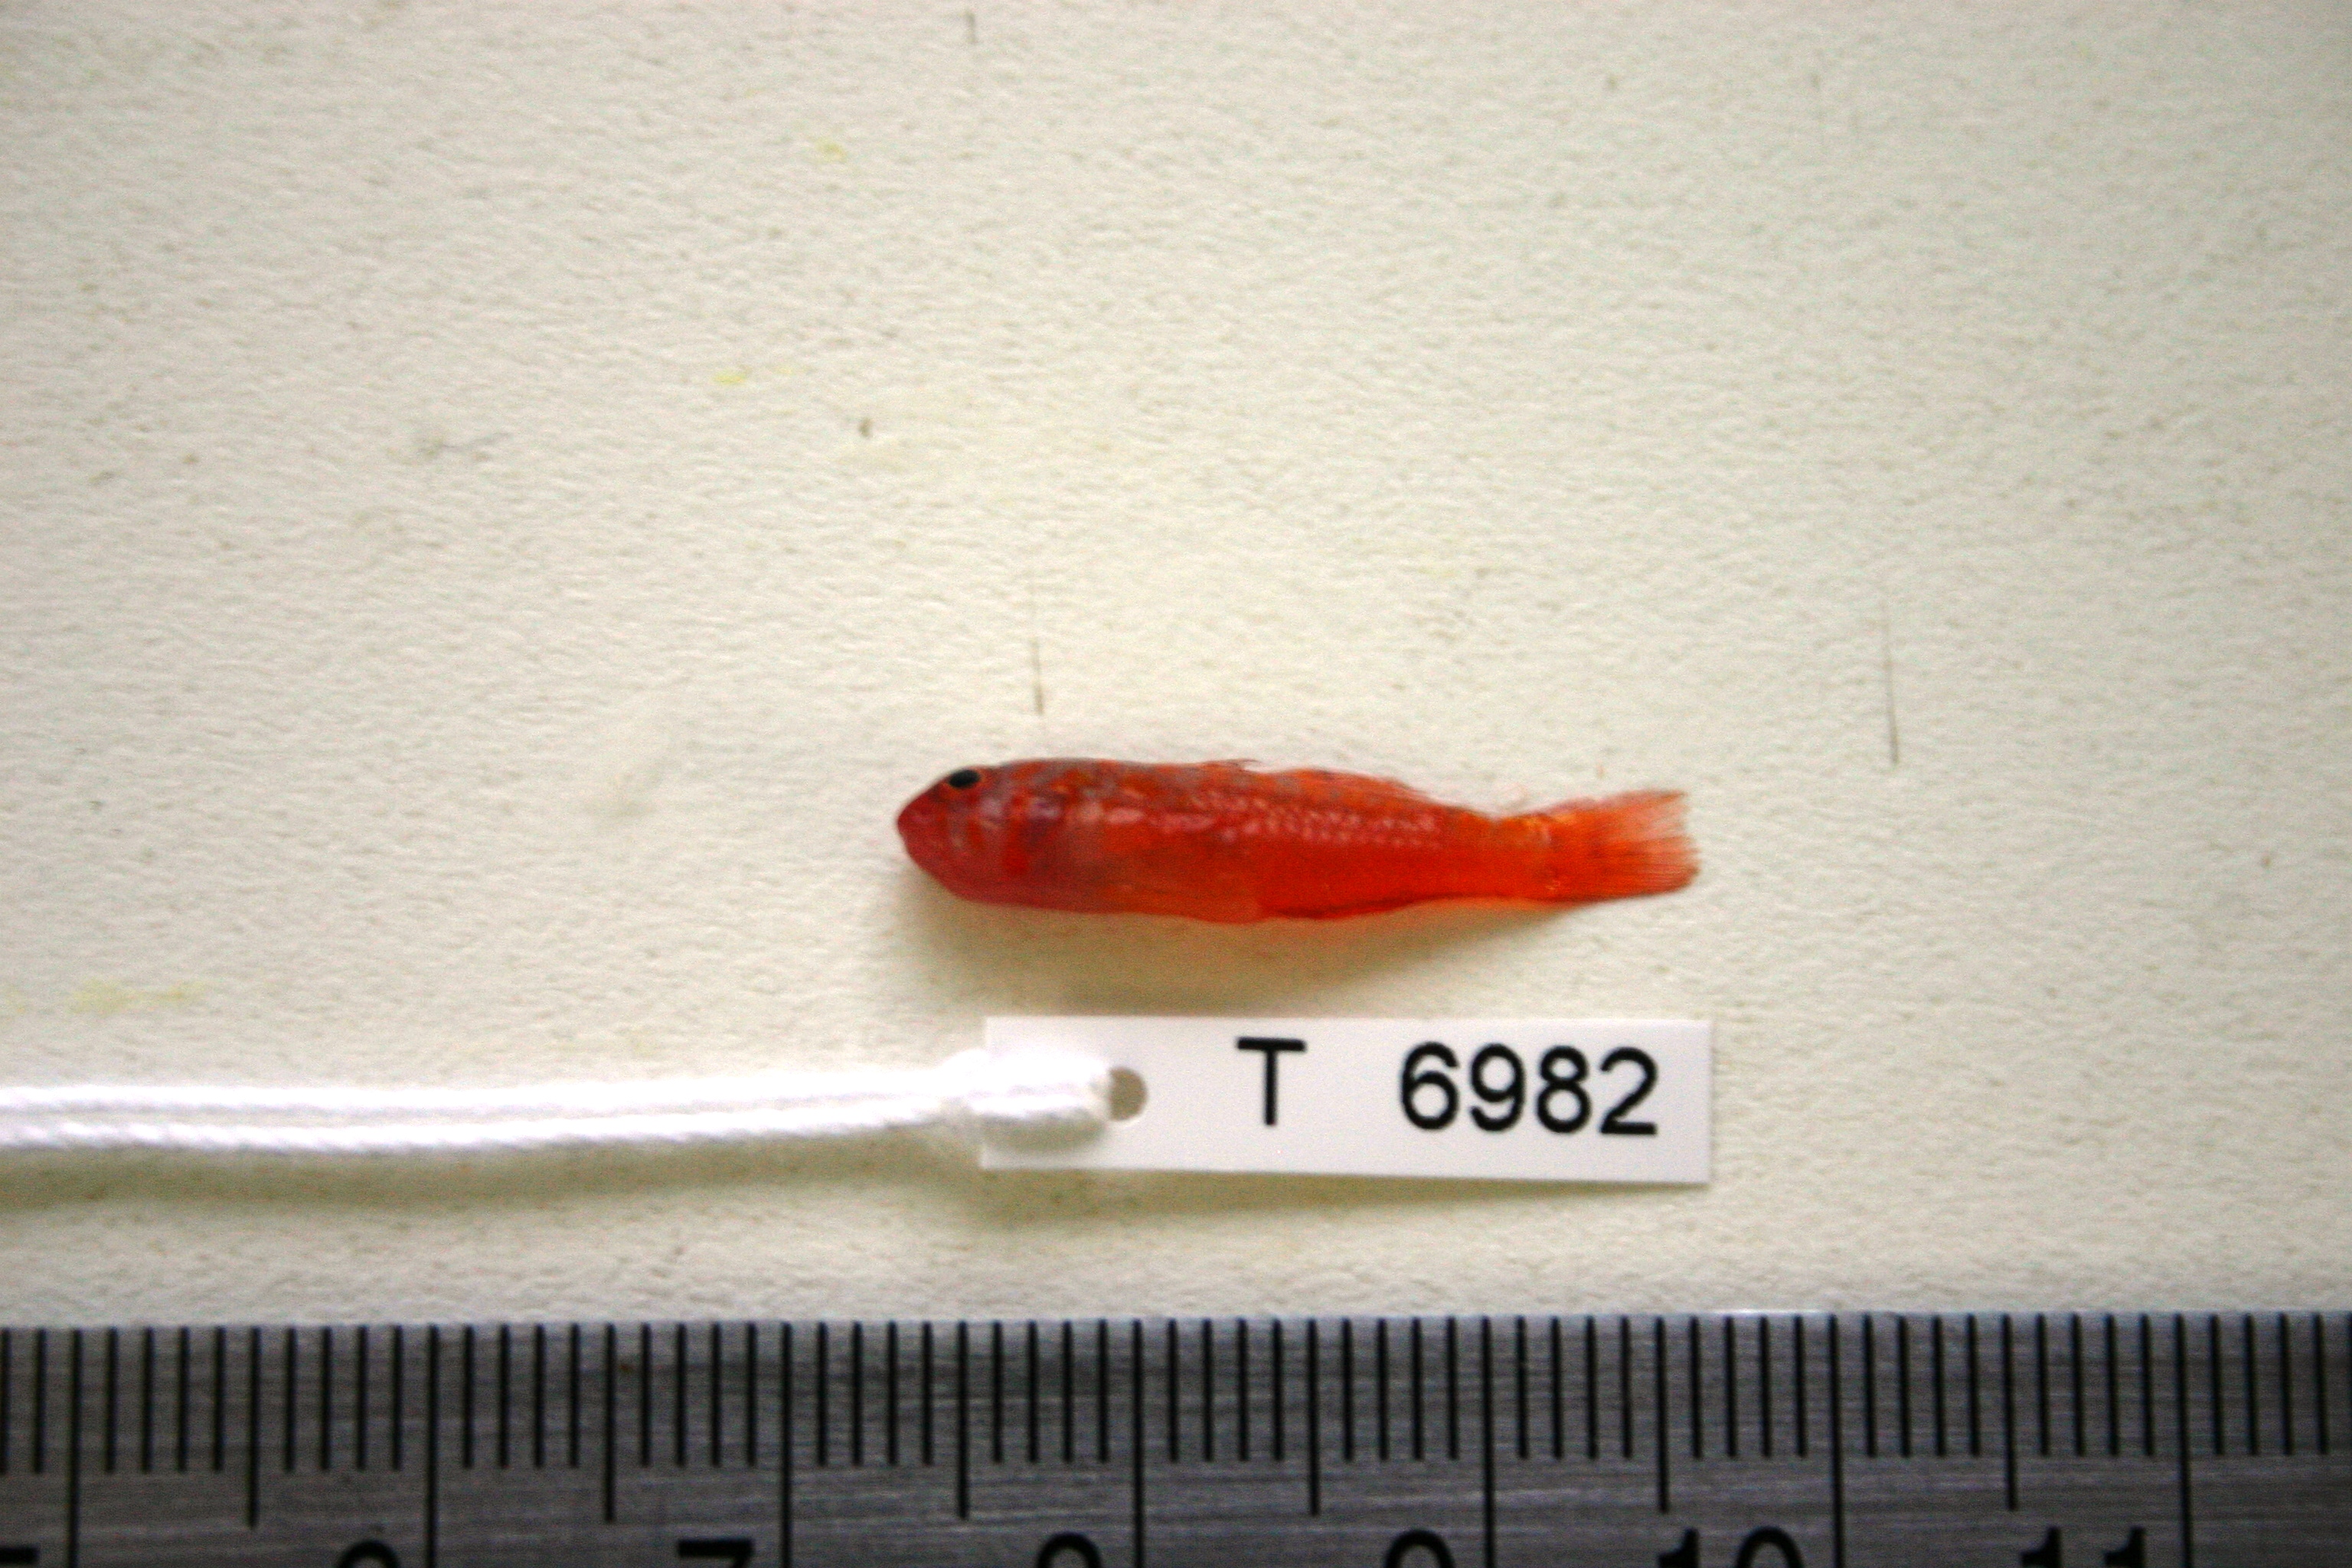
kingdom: Animalia
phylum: Chordata
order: Perciformes
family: Gobiidae
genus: Trimma
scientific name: Trimma haima
